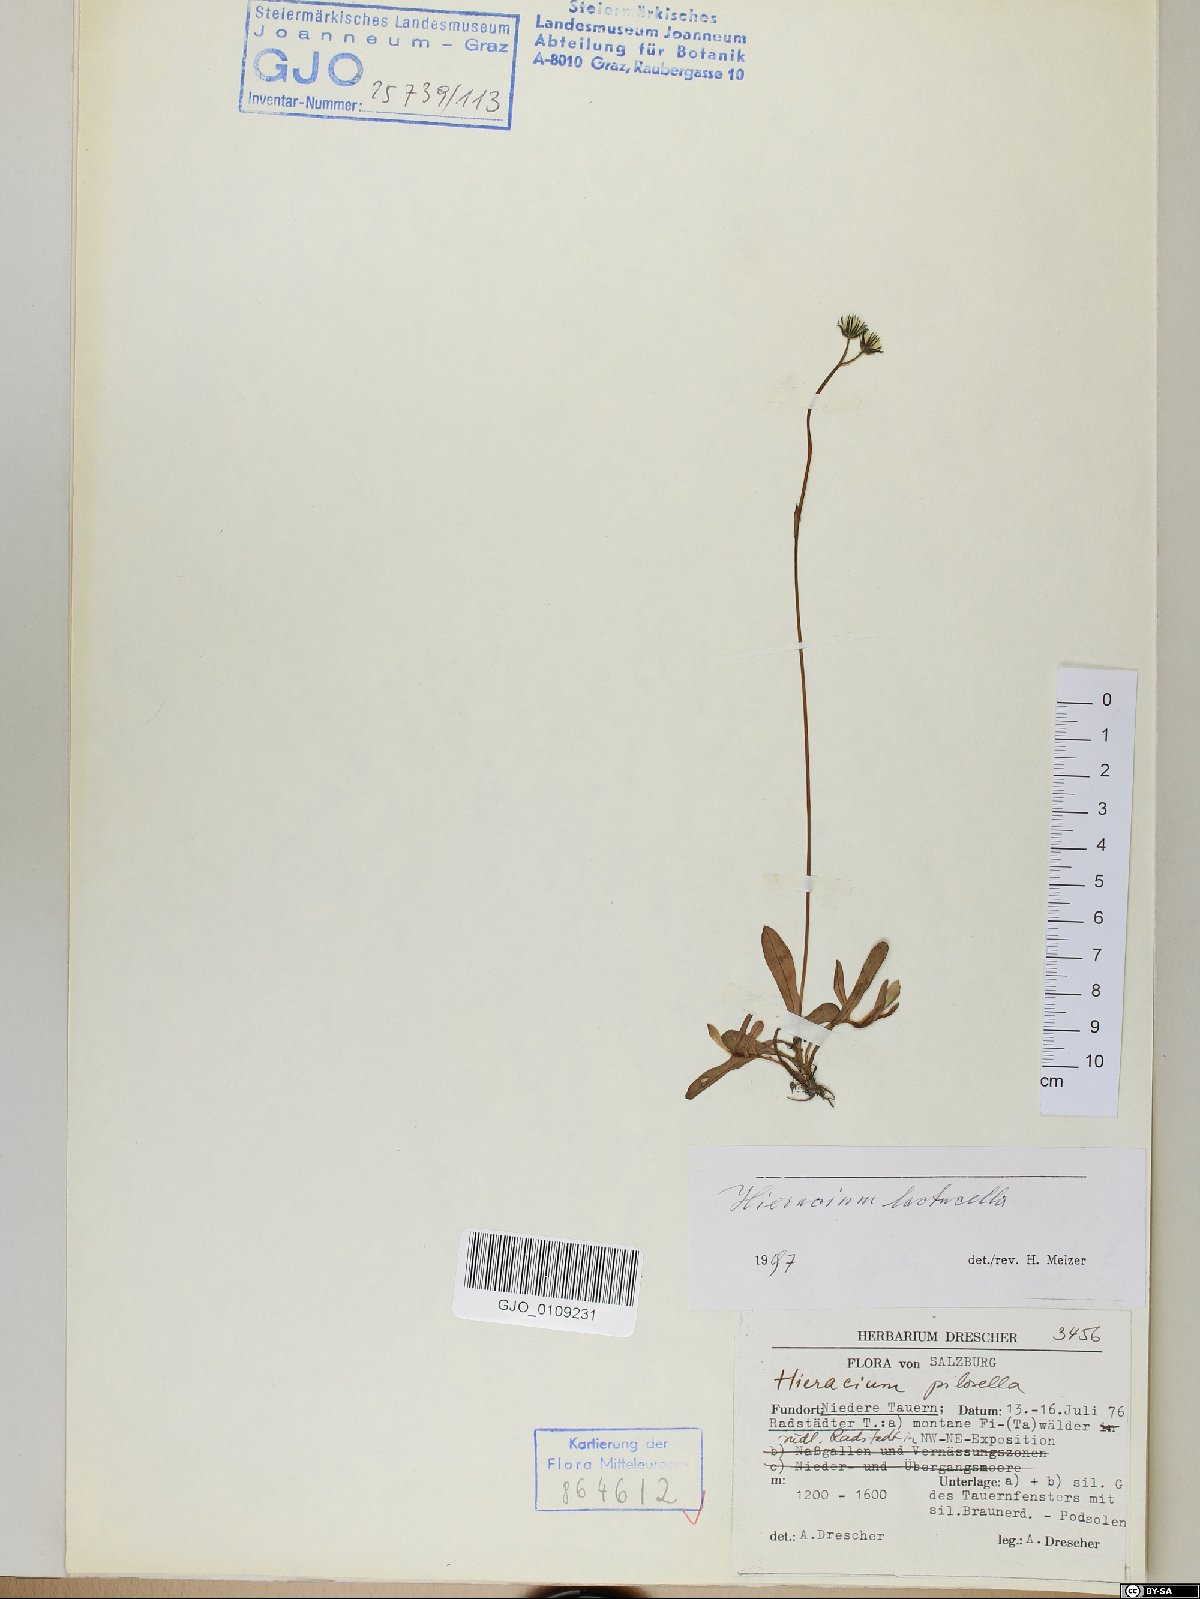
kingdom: Plantae
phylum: Tracheophyta
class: Magnoliopsida
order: Asterales
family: Asteraceae
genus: Pilosella
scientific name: Pilosella lactucella
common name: Glaucous fox-and-cubs
